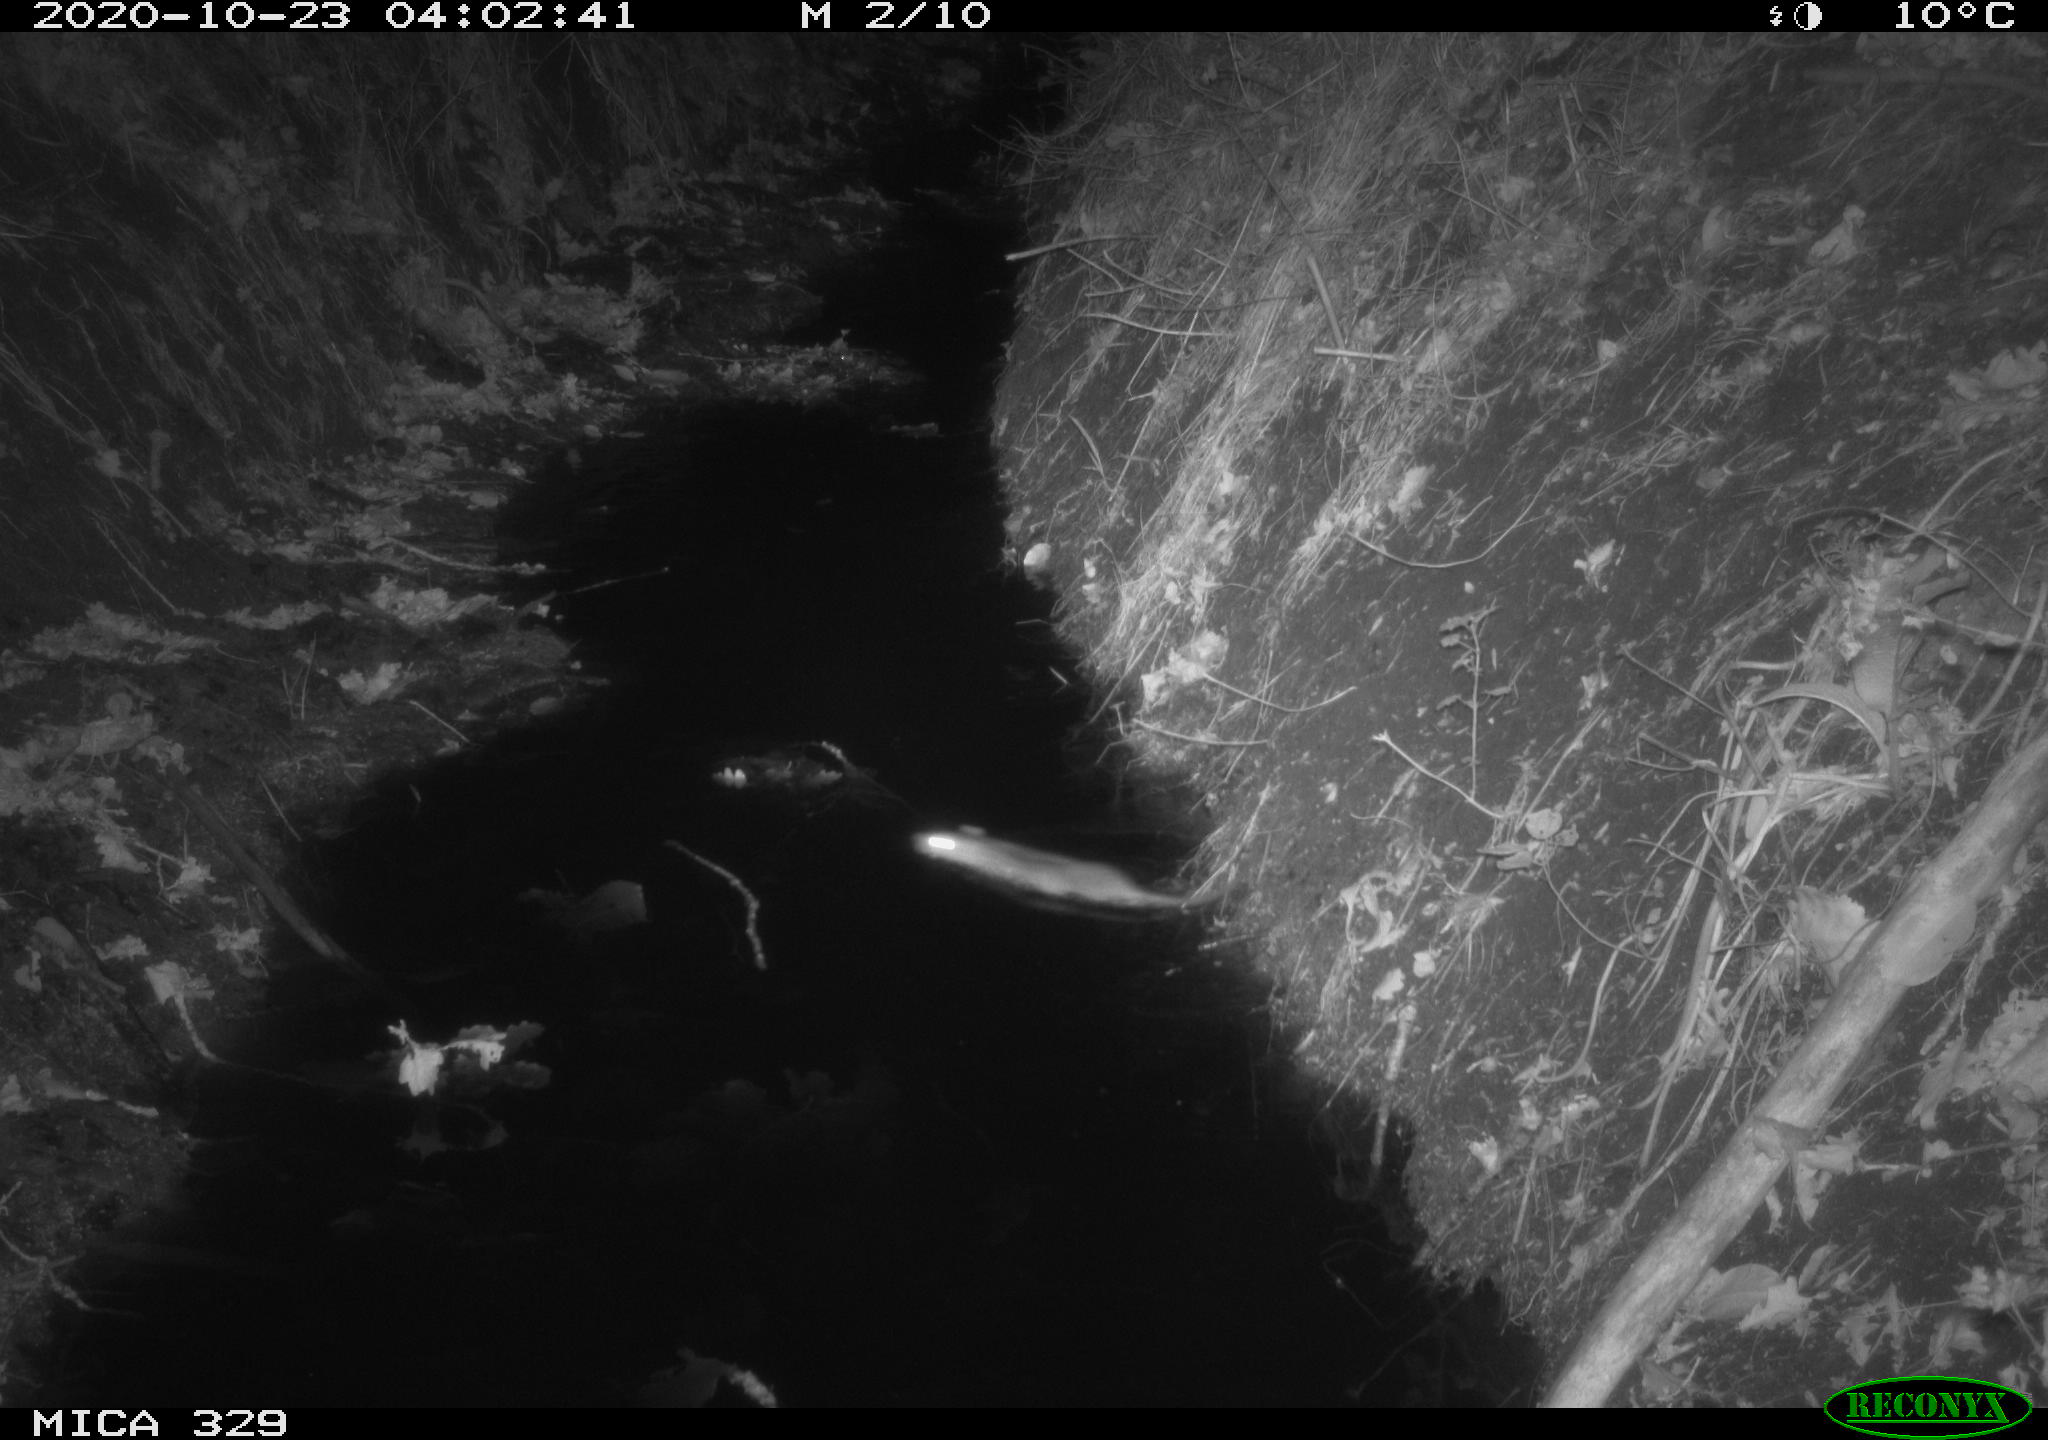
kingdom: Animalia
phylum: Chordata
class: Mammalia
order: Rodentia
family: Muridae
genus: Rattus
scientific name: Rattus norvegicus
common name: Brown rat
